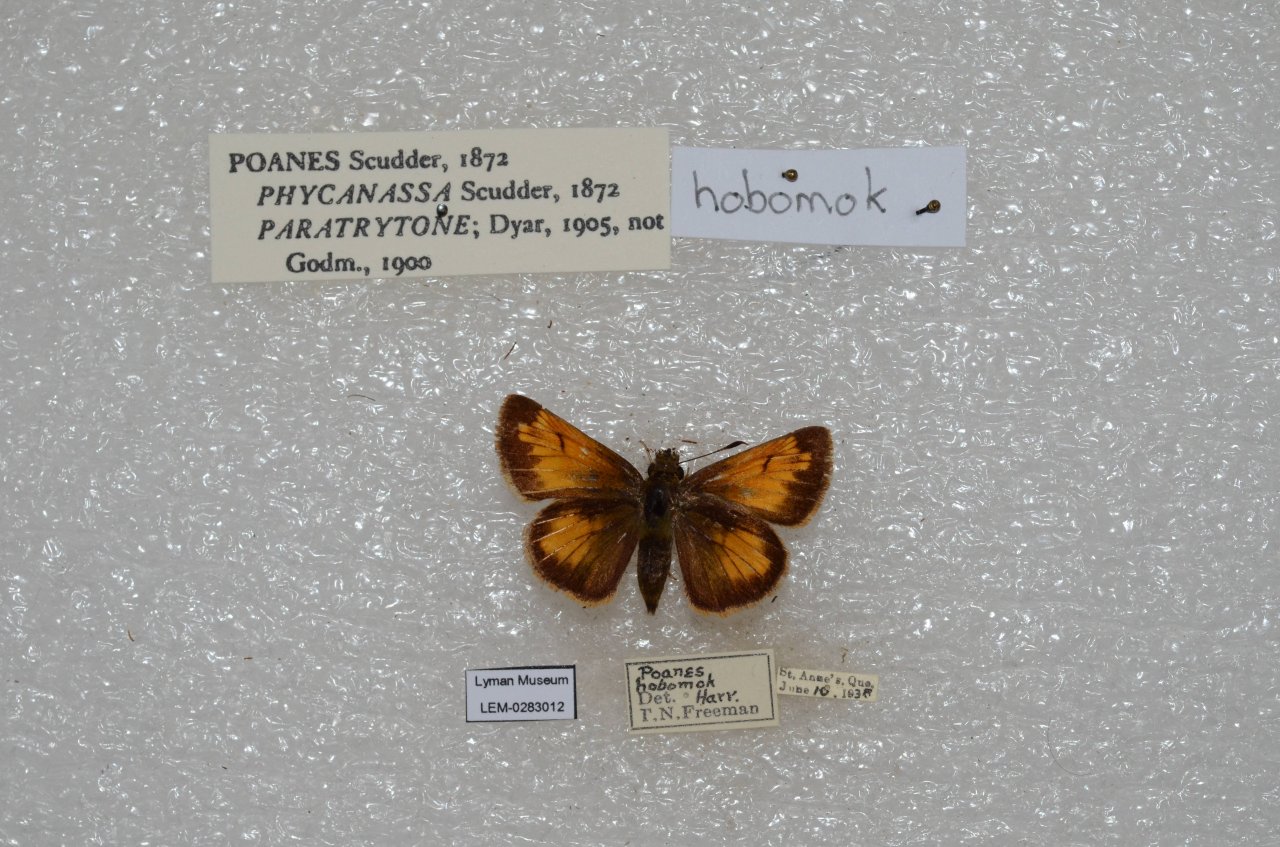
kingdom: Animalia
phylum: Arthropoda
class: Insecta
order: Lepidoptera
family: Hesperiidae
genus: Lon
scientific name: Lon hobomok
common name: Hobomok Skipper
